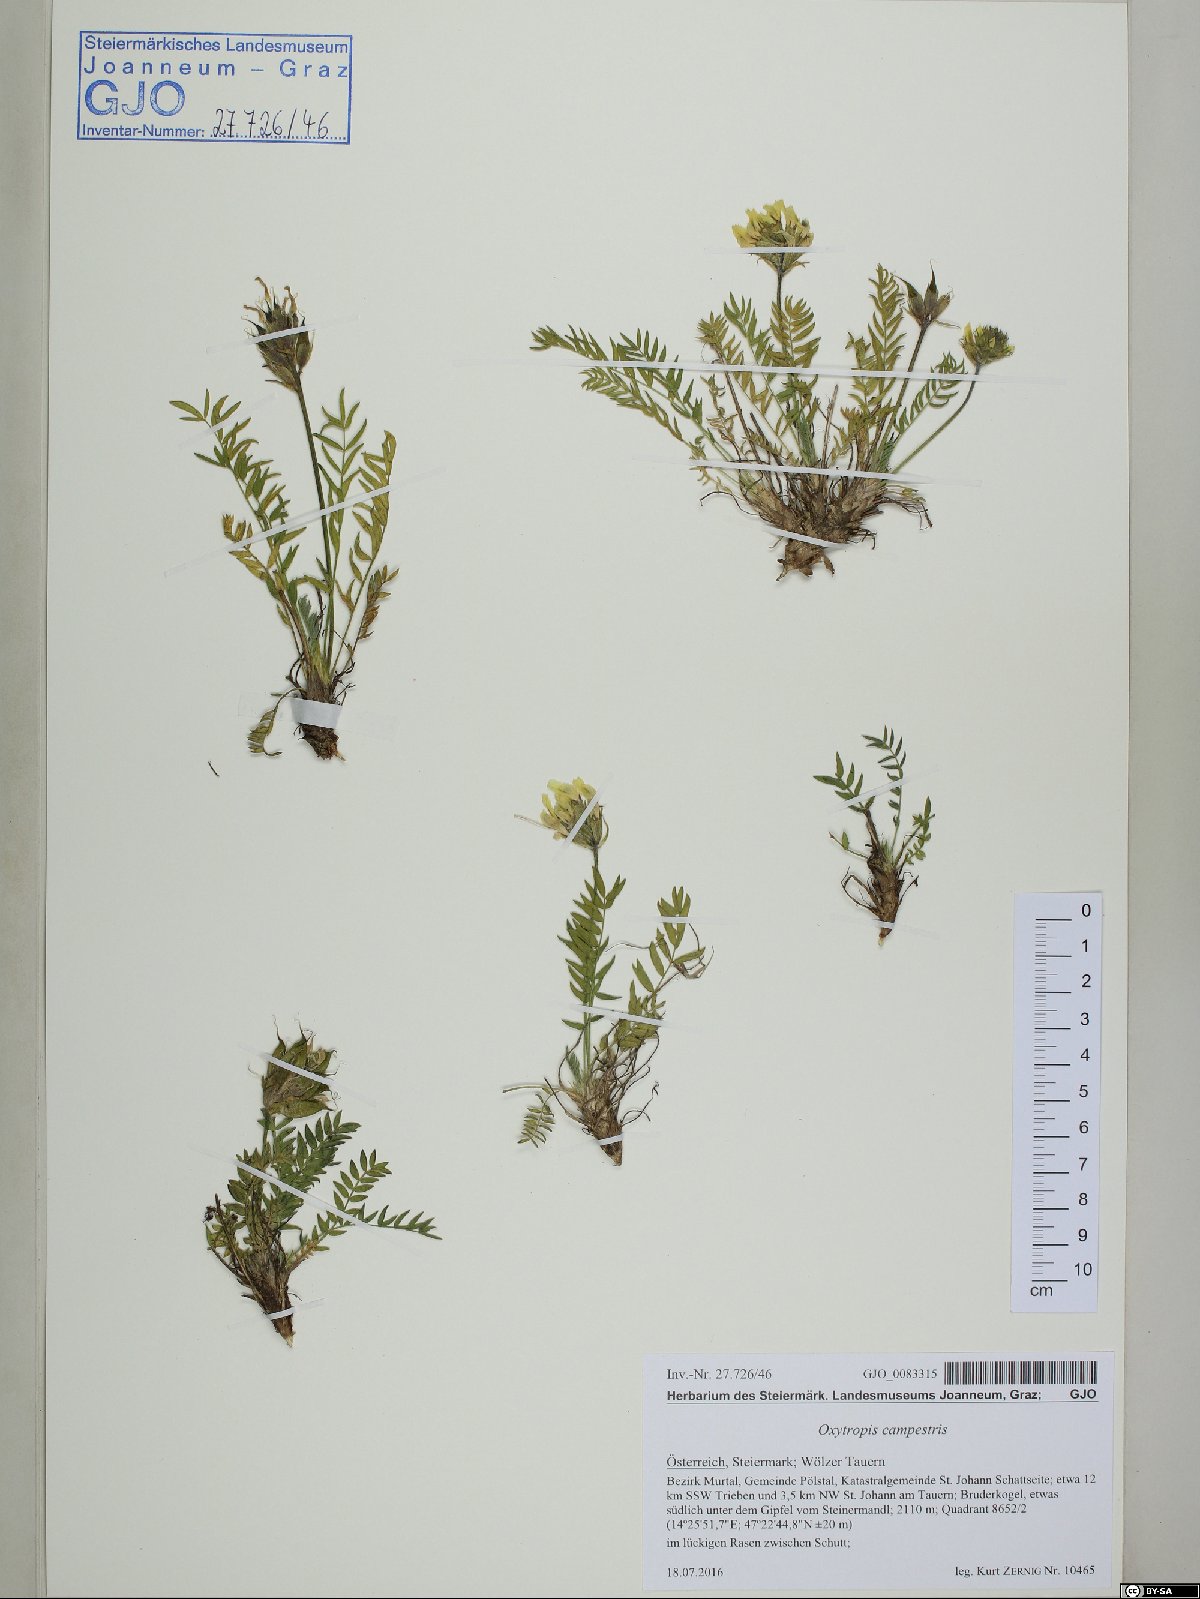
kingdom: Plantae
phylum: Tracheophyta
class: Magnoliopsida
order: Fabales
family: Fabaceae
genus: Oxytropis
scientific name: Oxytropis campestris
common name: Field locoweed
